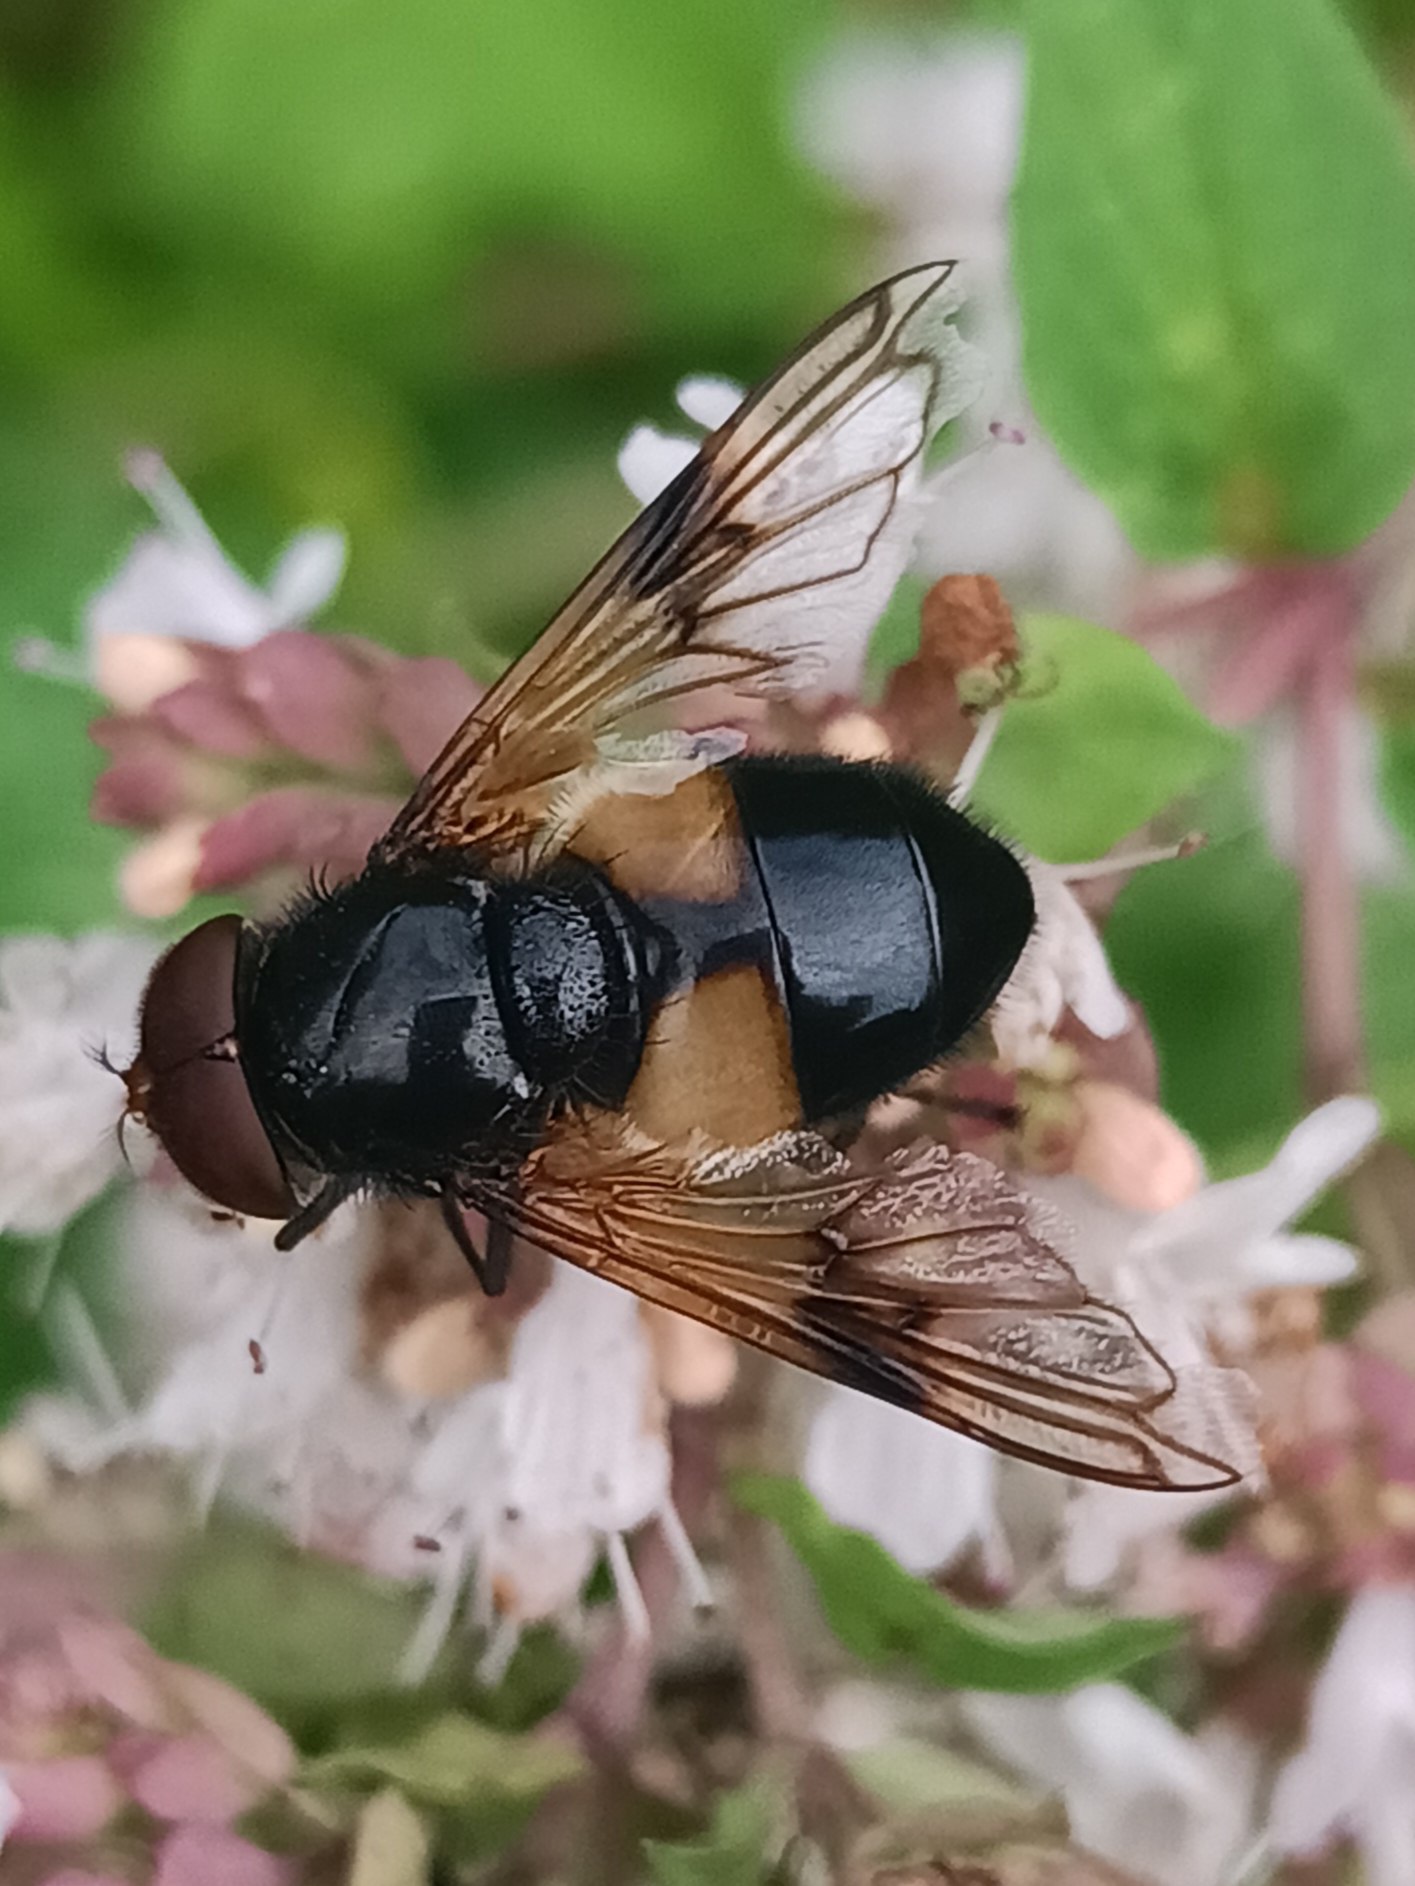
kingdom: Animalia
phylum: Arthropoda
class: Insecta
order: Diptera
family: Syrphidae
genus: Volucella
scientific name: Volucella pellucens
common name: Hvidbåndet humlesvirreflue
